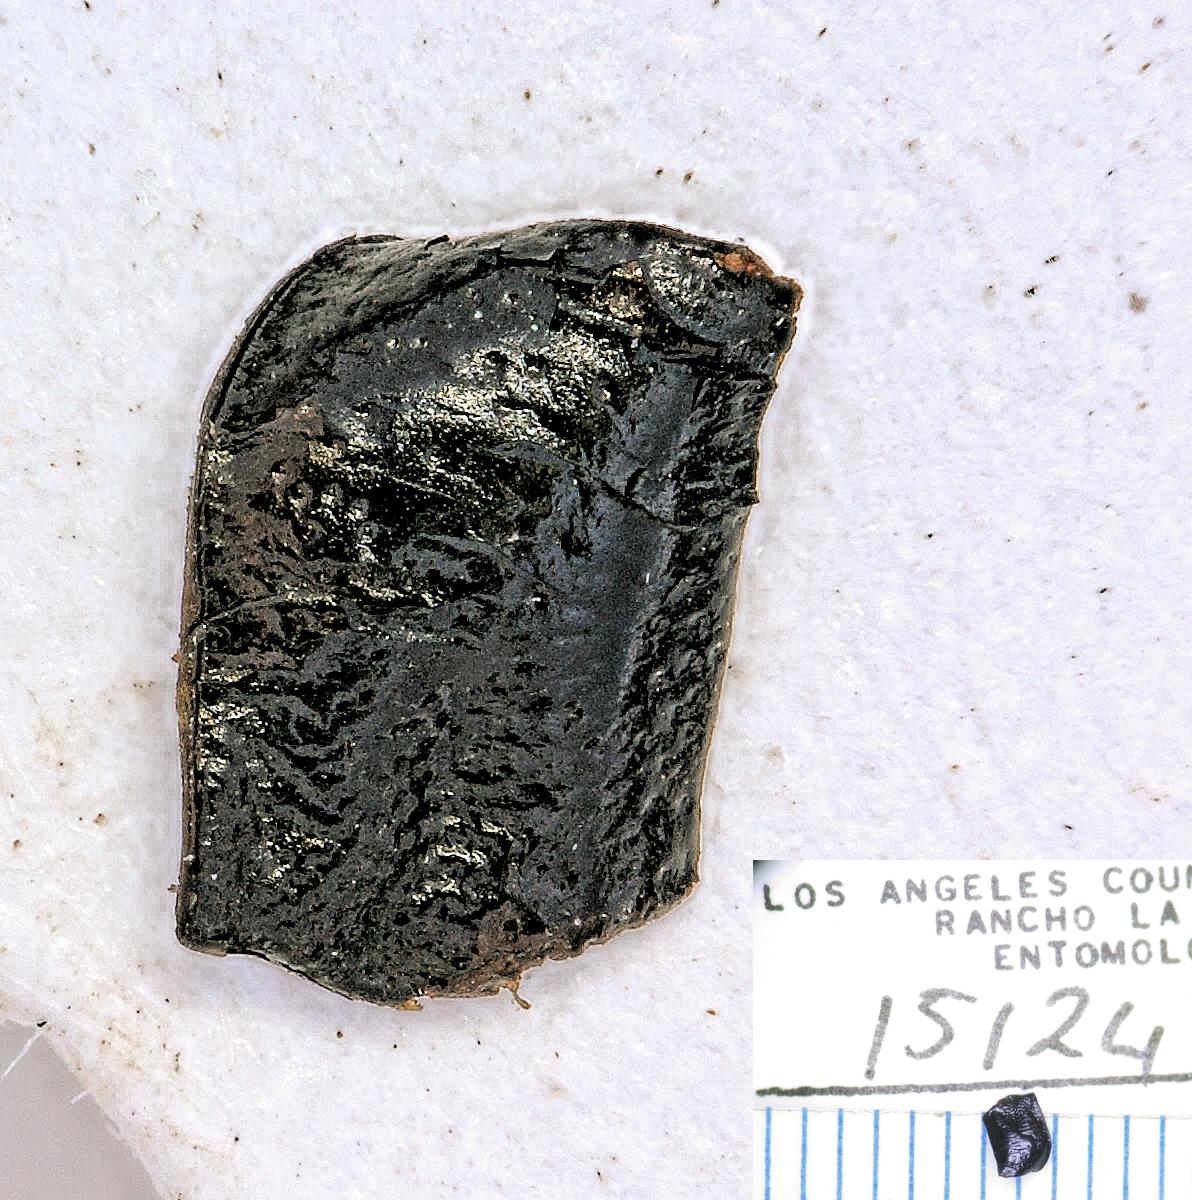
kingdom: Animalia
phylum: Arthropoda
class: Insecta
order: Coleoptera
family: Carabidae
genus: Dicheirus
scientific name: Dicheirus
